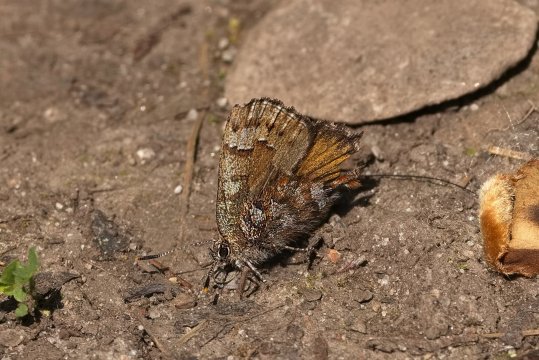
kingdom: Animalia
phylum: Arthropoda
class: Insecta
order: Lepidoptera
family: Lycaenidae
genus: Incisalia
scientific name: Incisalia niphon
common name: Eastern Pine Elfin
